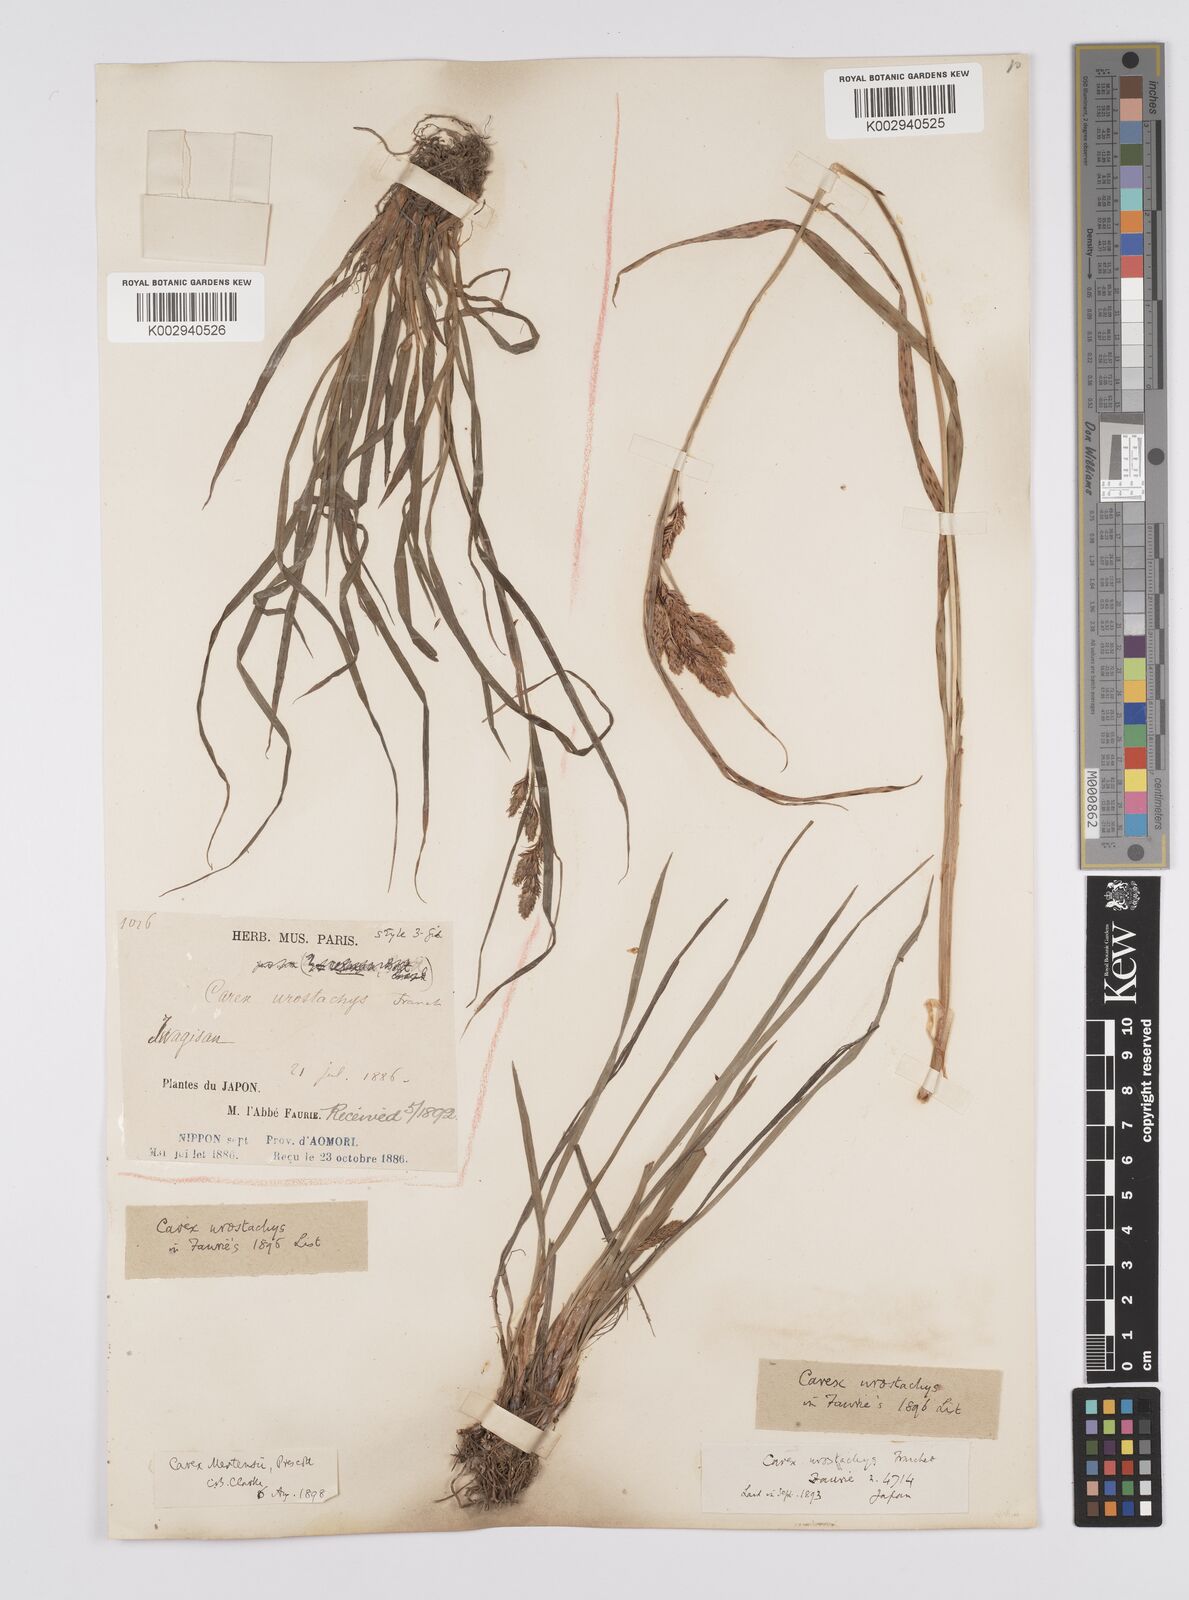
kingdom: Plantae
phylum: Tracheophyta
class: Liliopsida
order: Poales
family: Cyperaceae
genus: Carex
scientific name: Carex mertensii
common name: Mertens' sedge
